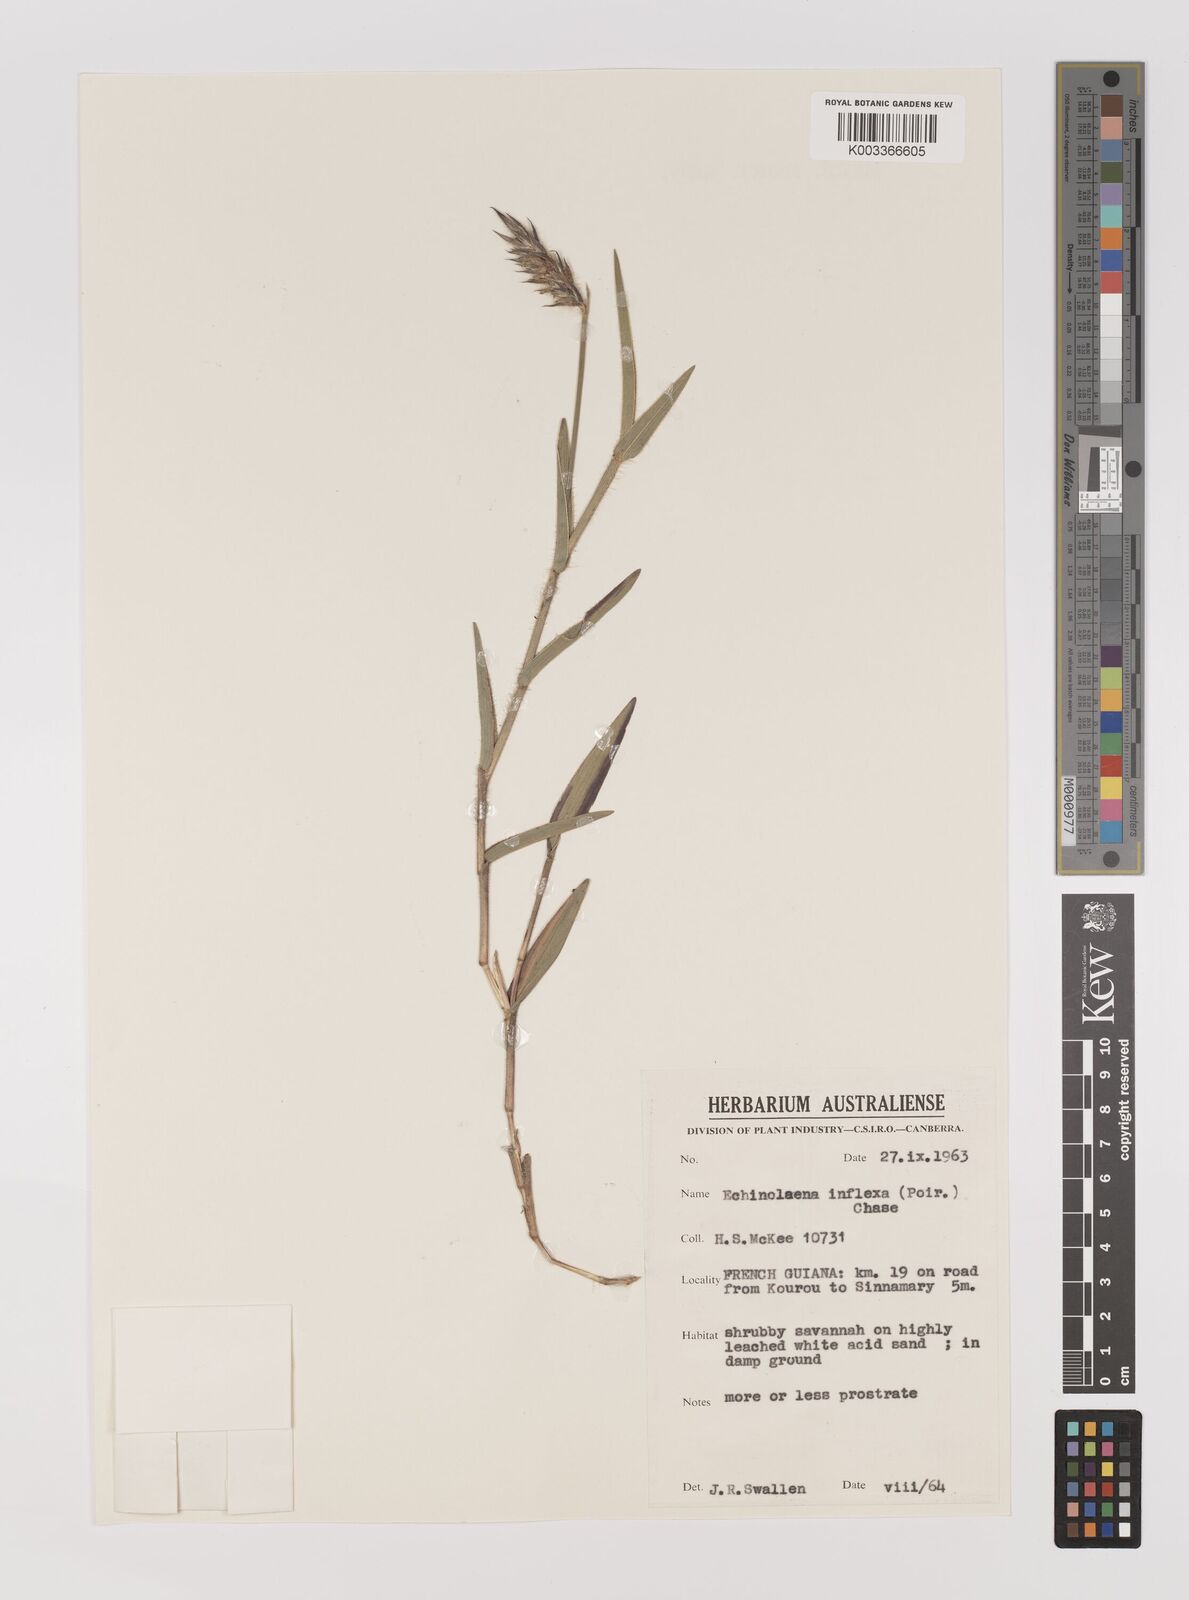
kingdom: Plantae
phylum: Tracheophyta
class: Liliopsida
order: Poales
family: Poaceae
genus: Echinolaena
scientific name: Echinolaena inflexa
